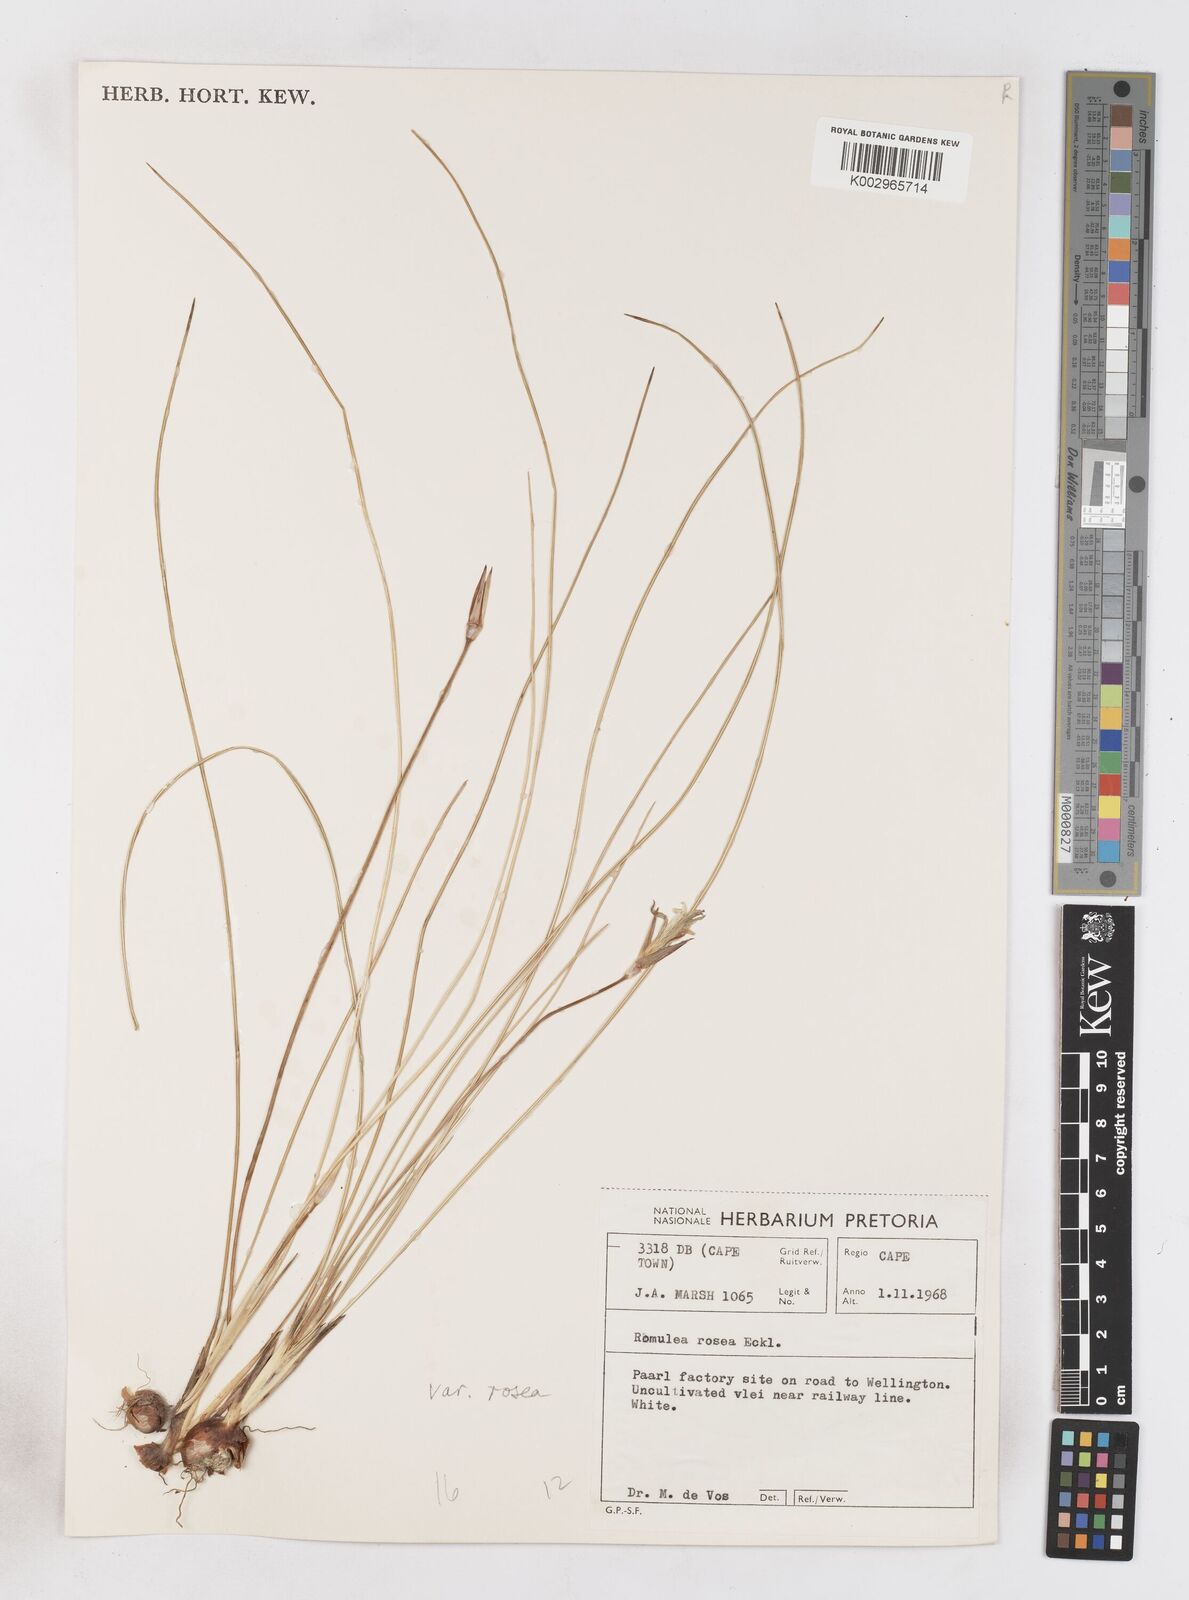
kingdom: Plantae
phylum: Tracheophyta
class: Liliopsida
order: Asparagales
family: Iridaceae
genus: Romulea
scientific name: Romulea rosea
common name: Oniongrass
